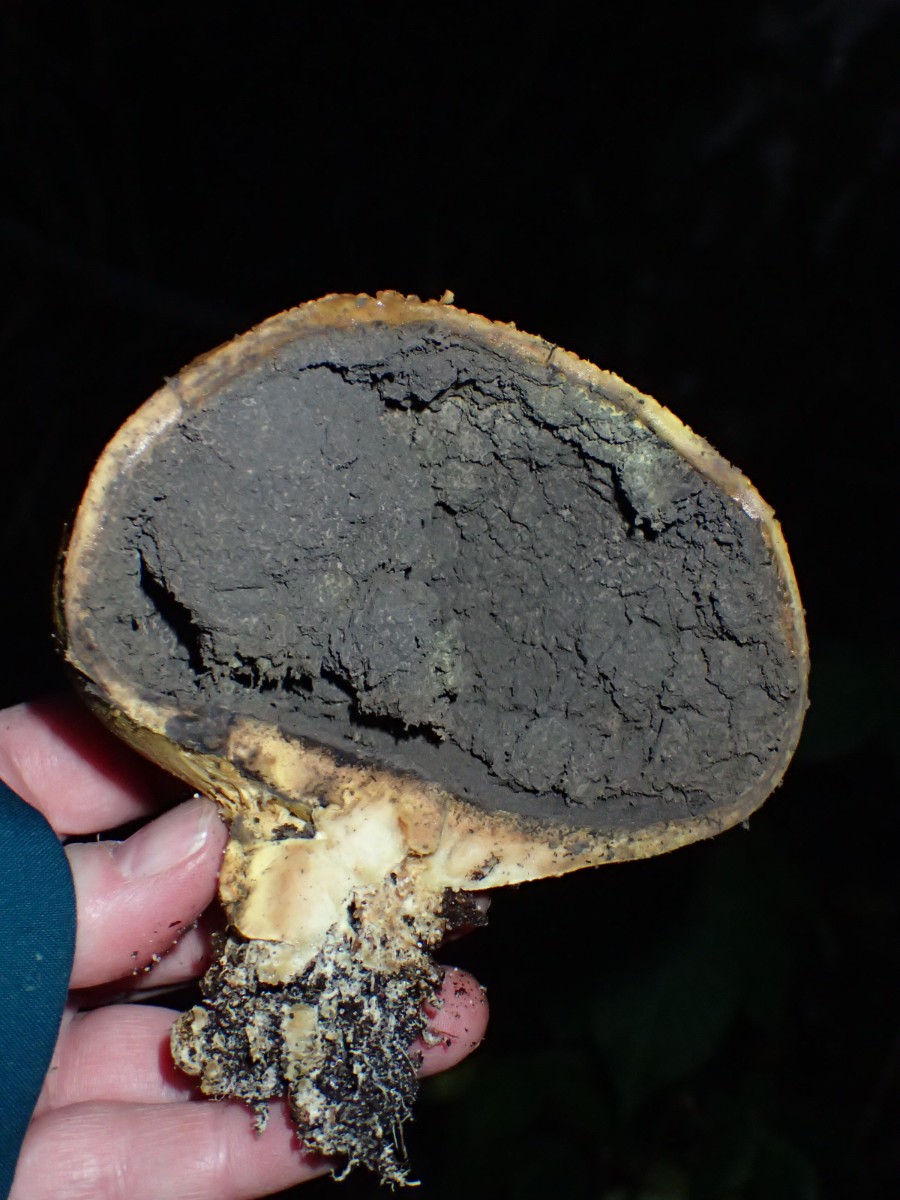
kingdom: Fungi
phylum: Basidiomycota
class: Agaricomycetes
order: Boletales
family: Sclerodermataceae
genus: Scleroderma
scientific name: Scleroderma citrinum
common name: almindelig bruskbold
